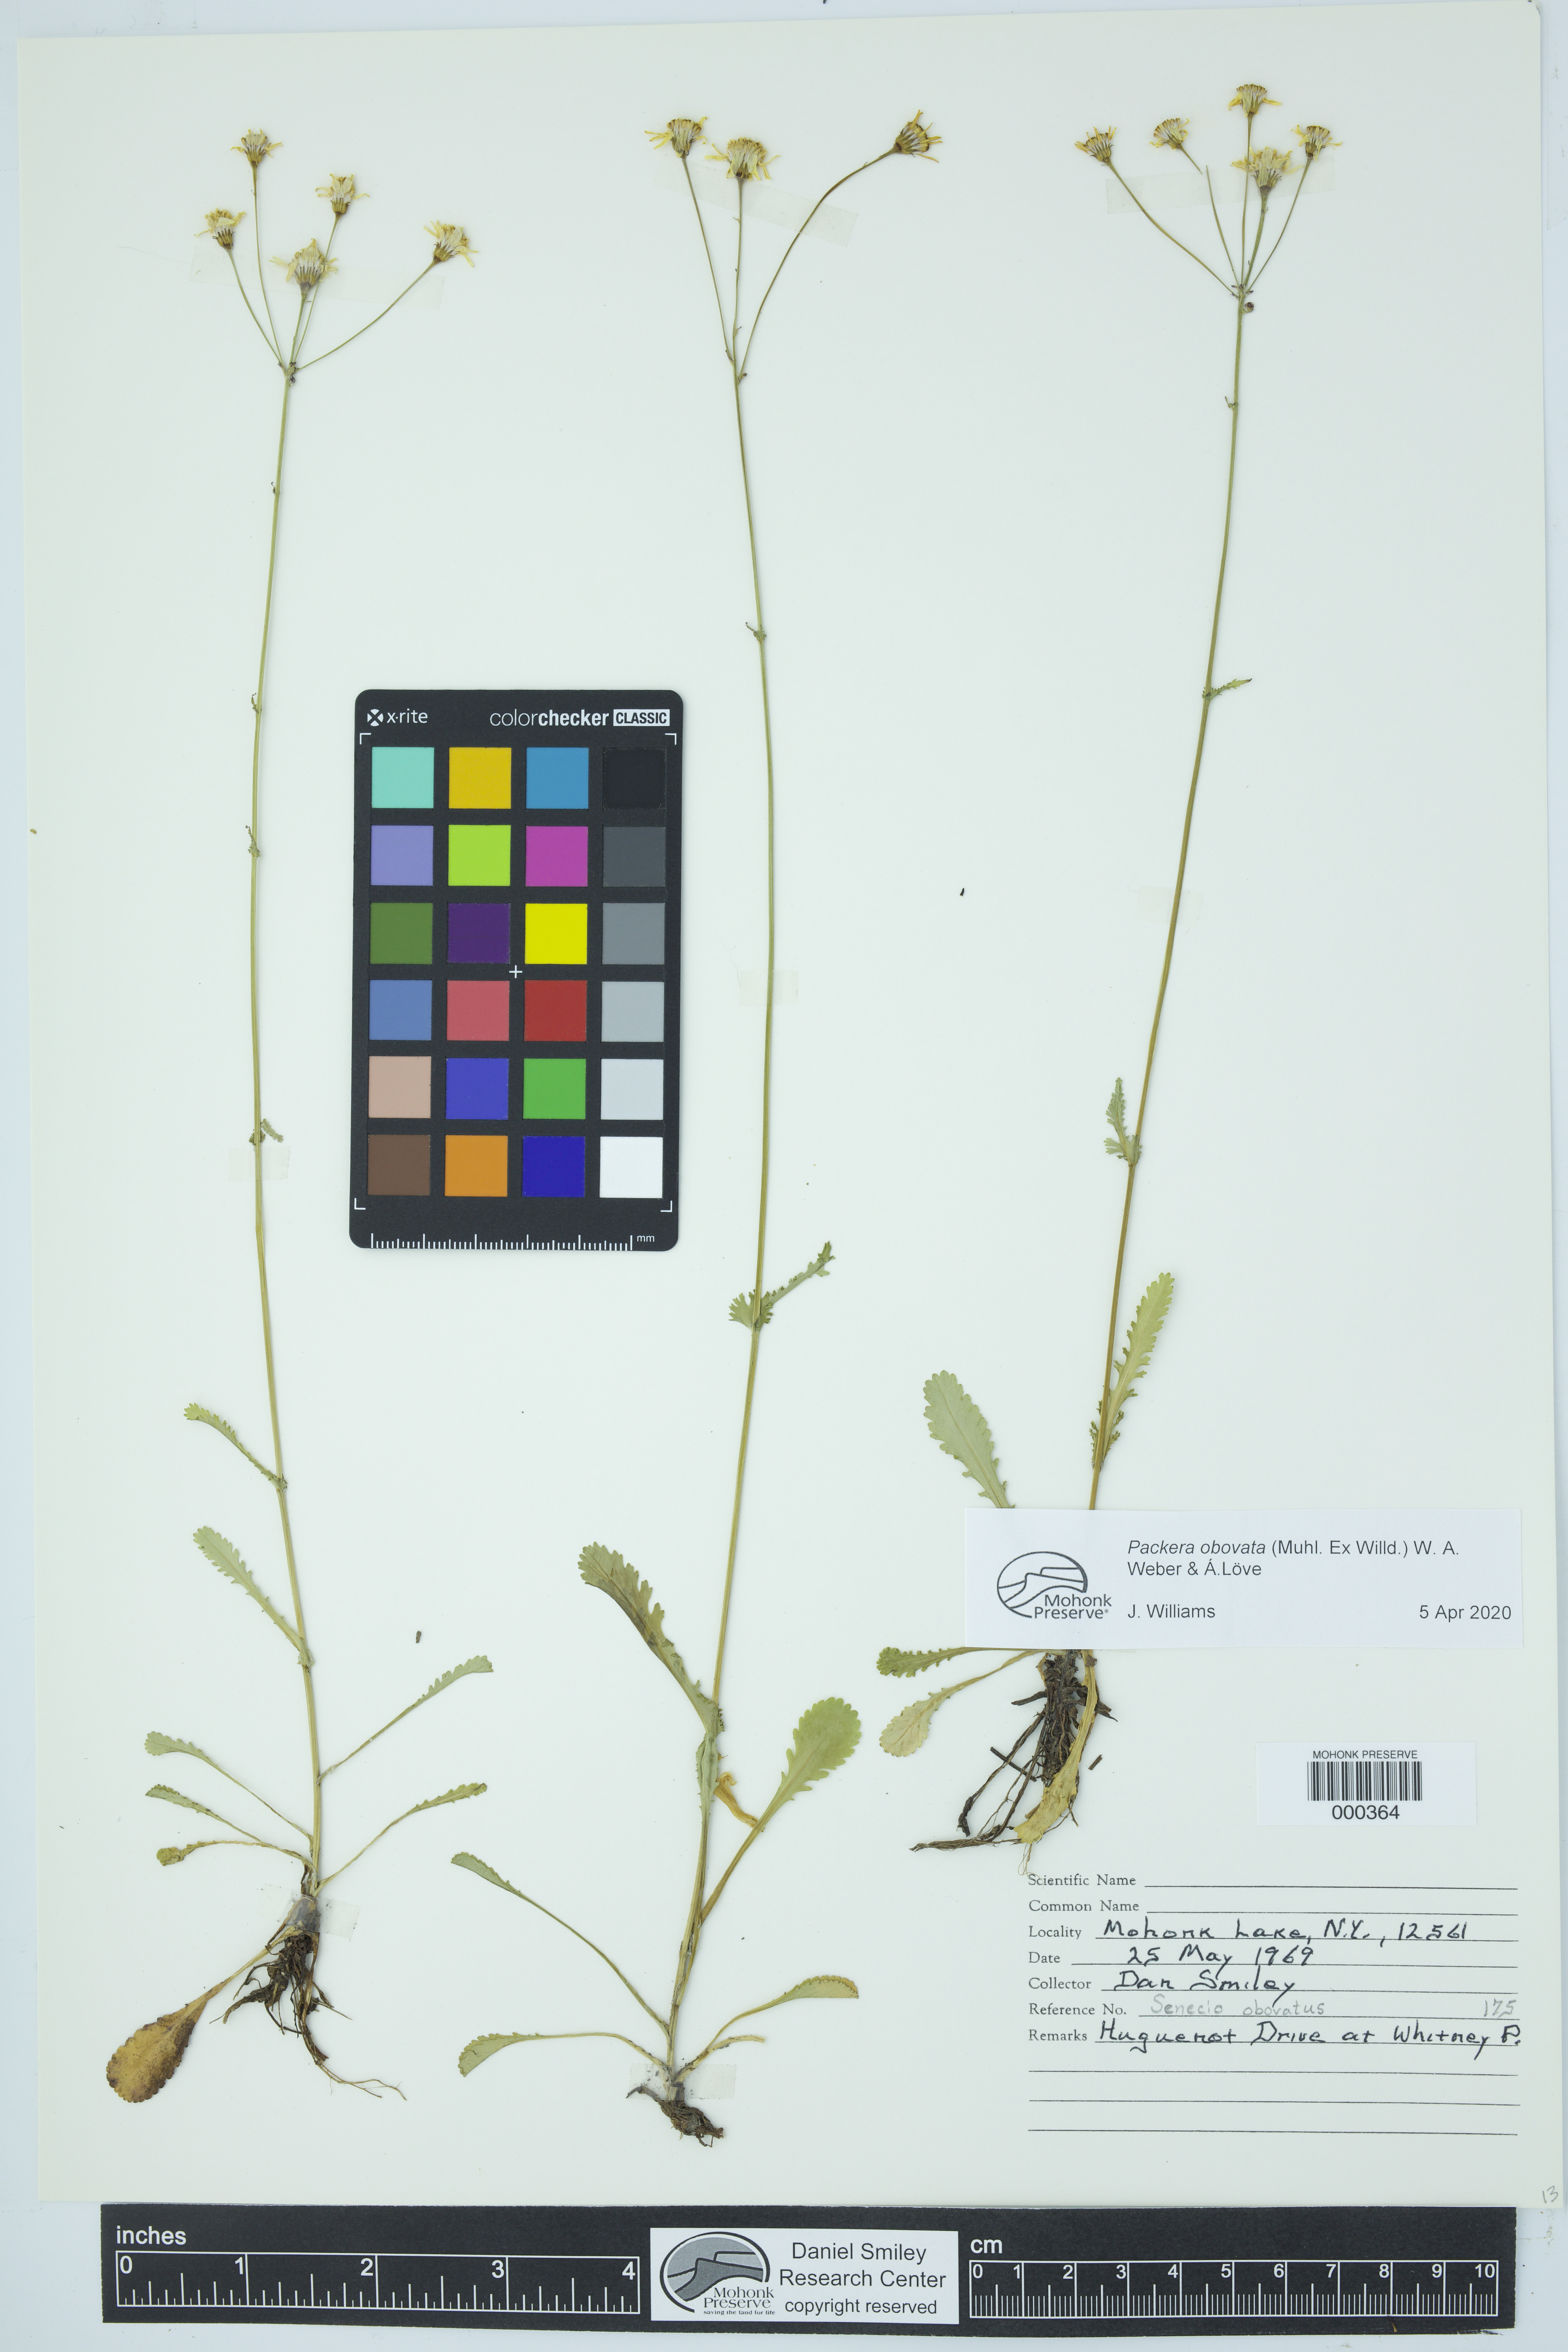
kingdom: Plantae
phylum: Tracheophyta
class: Magnoliopsida
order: Asterales
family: Asteraceae
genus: Packera
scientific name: Packera obovata
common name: Round-leaf ragwort
